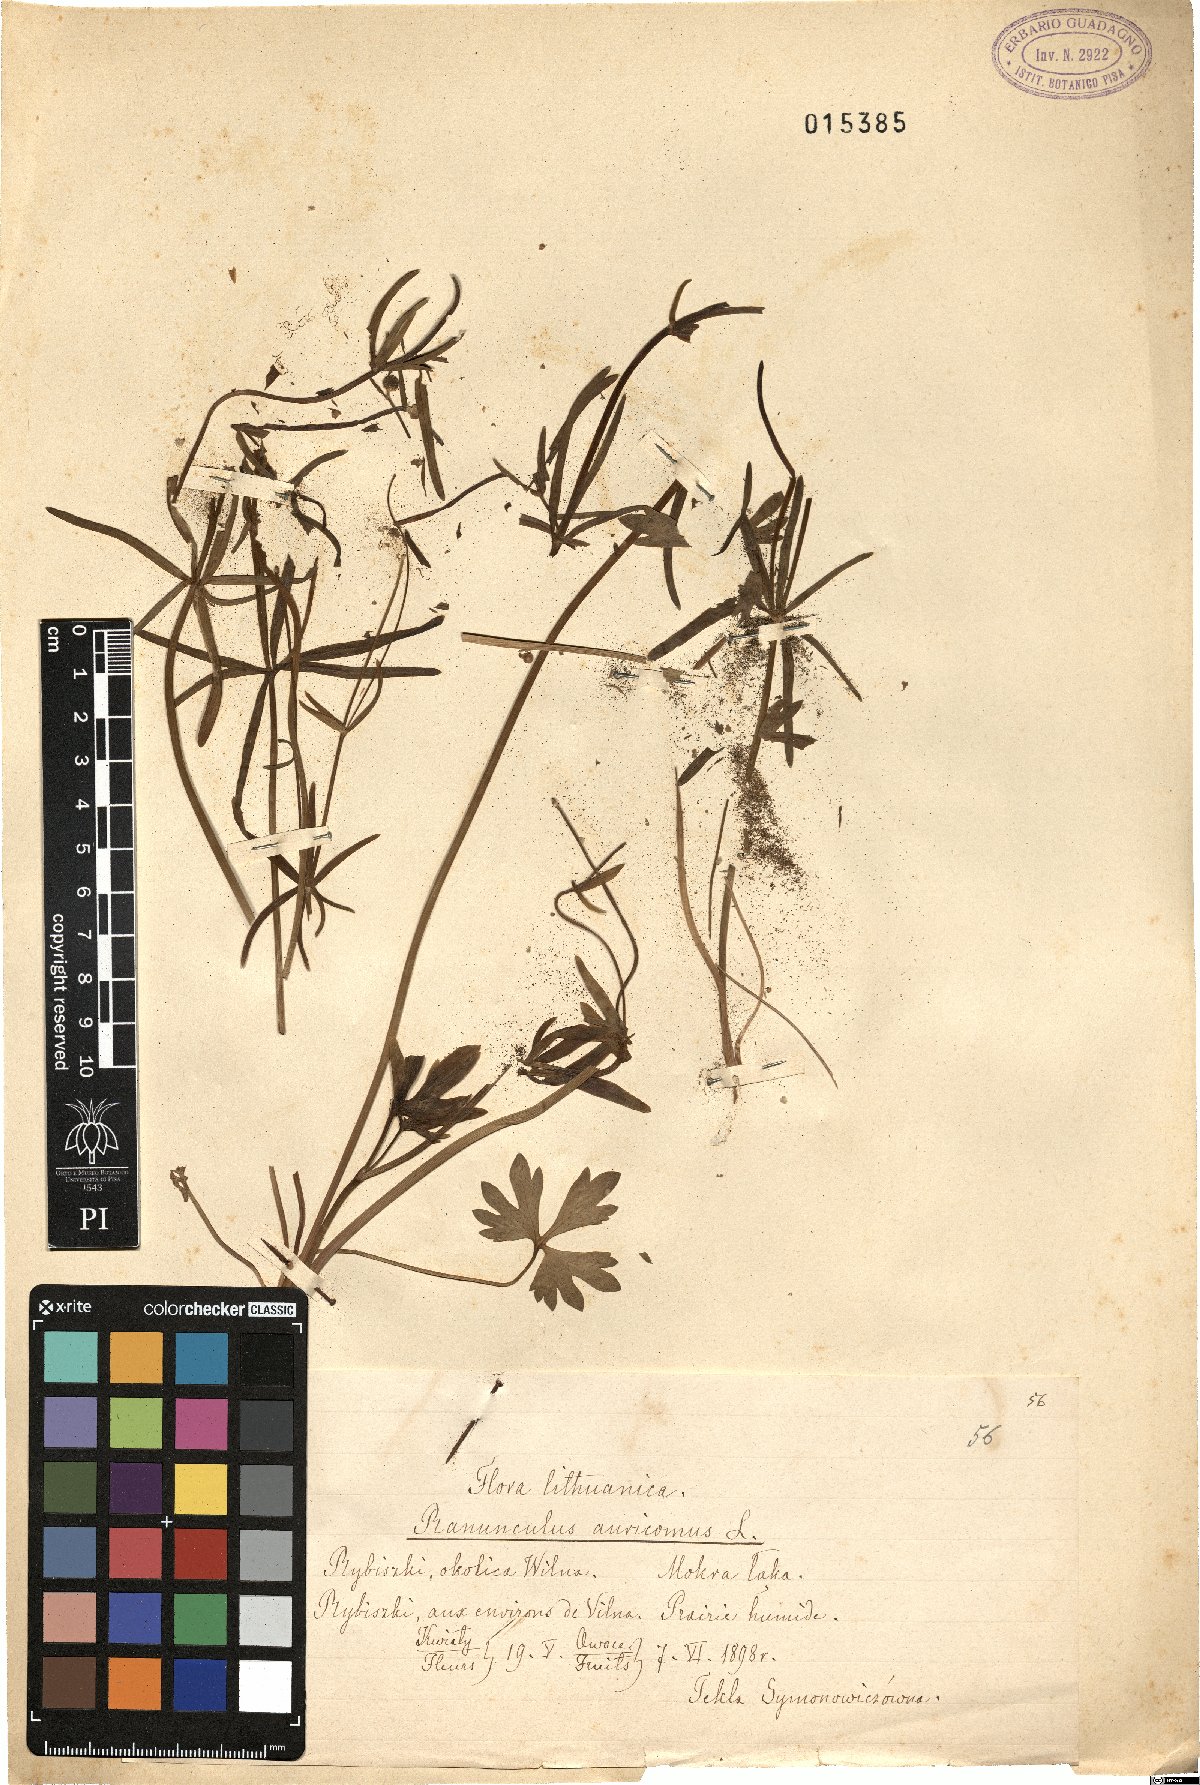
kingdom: Plantae
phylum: Tracheophyta
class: Magnoliopsida
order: Ranunculales
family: Ranunculaceae
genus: Ranunculus
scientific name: Ranunculus auricomus
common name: Goldilocks buttercup
